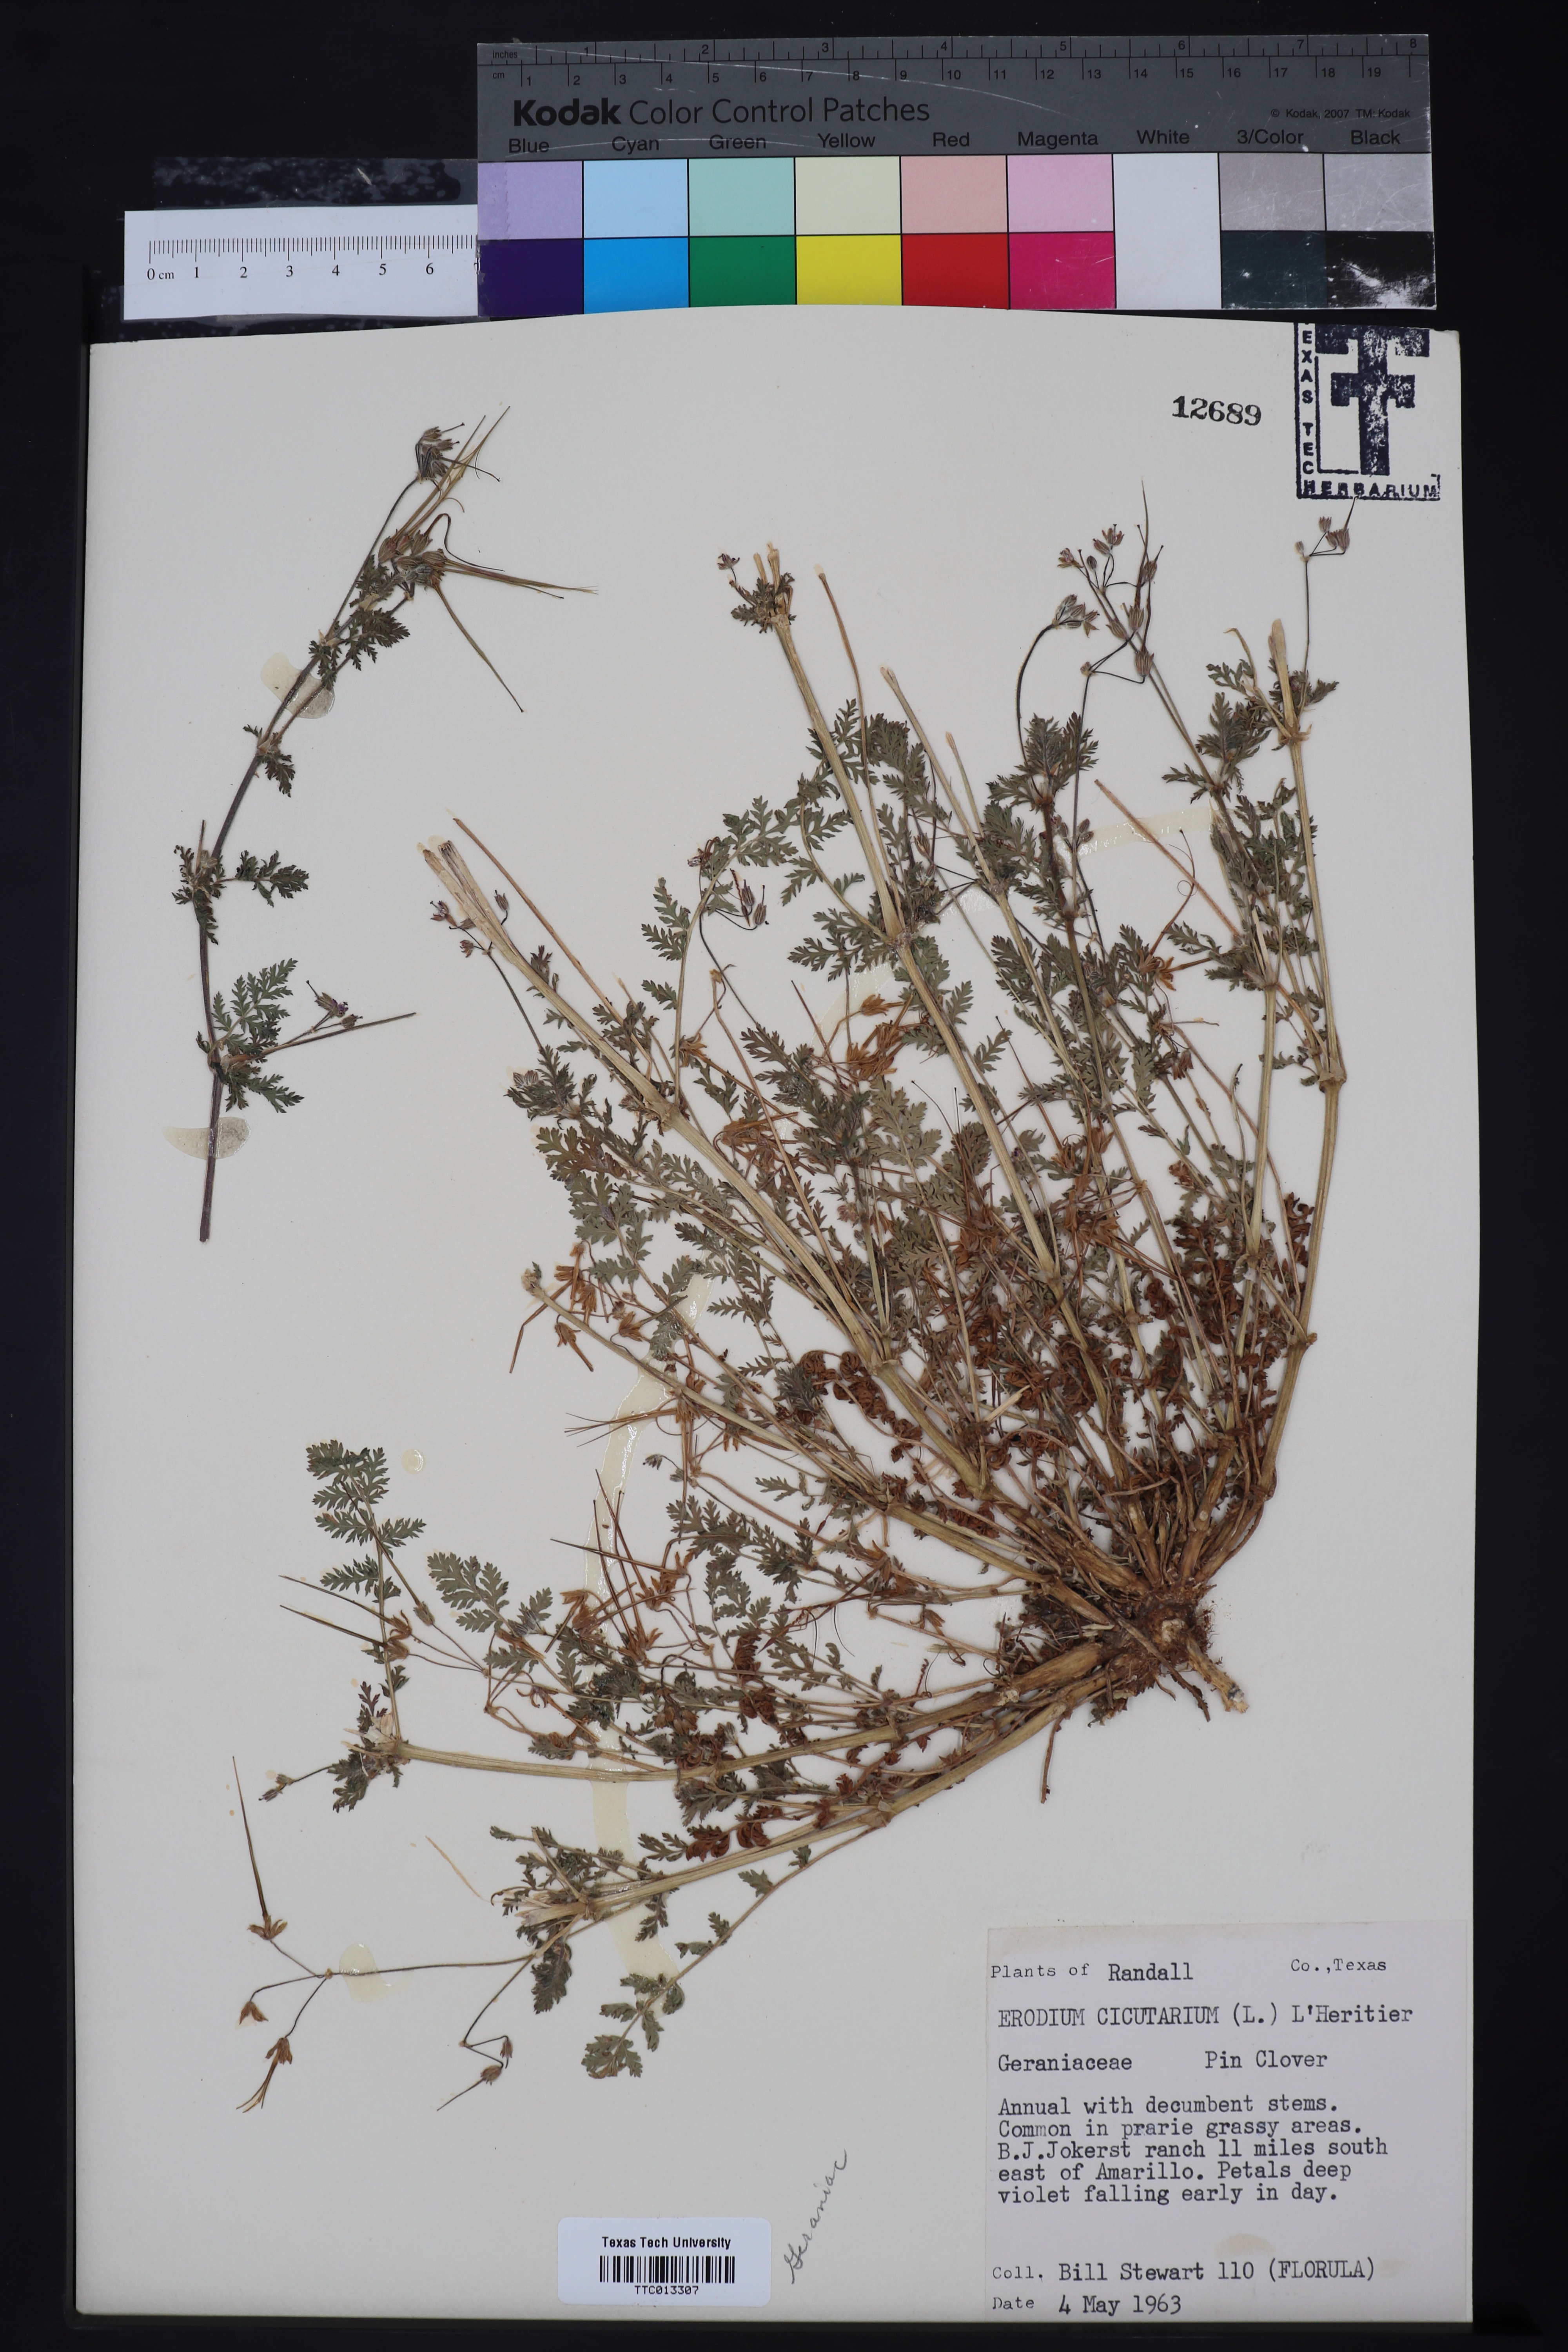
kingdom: Plantae
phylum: Tracheophyta
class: Magnoliopsida
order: Geraniales
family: Geraniaceae
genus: Erodium
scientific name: Erodium cicutarium
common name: Common stork's-bill
